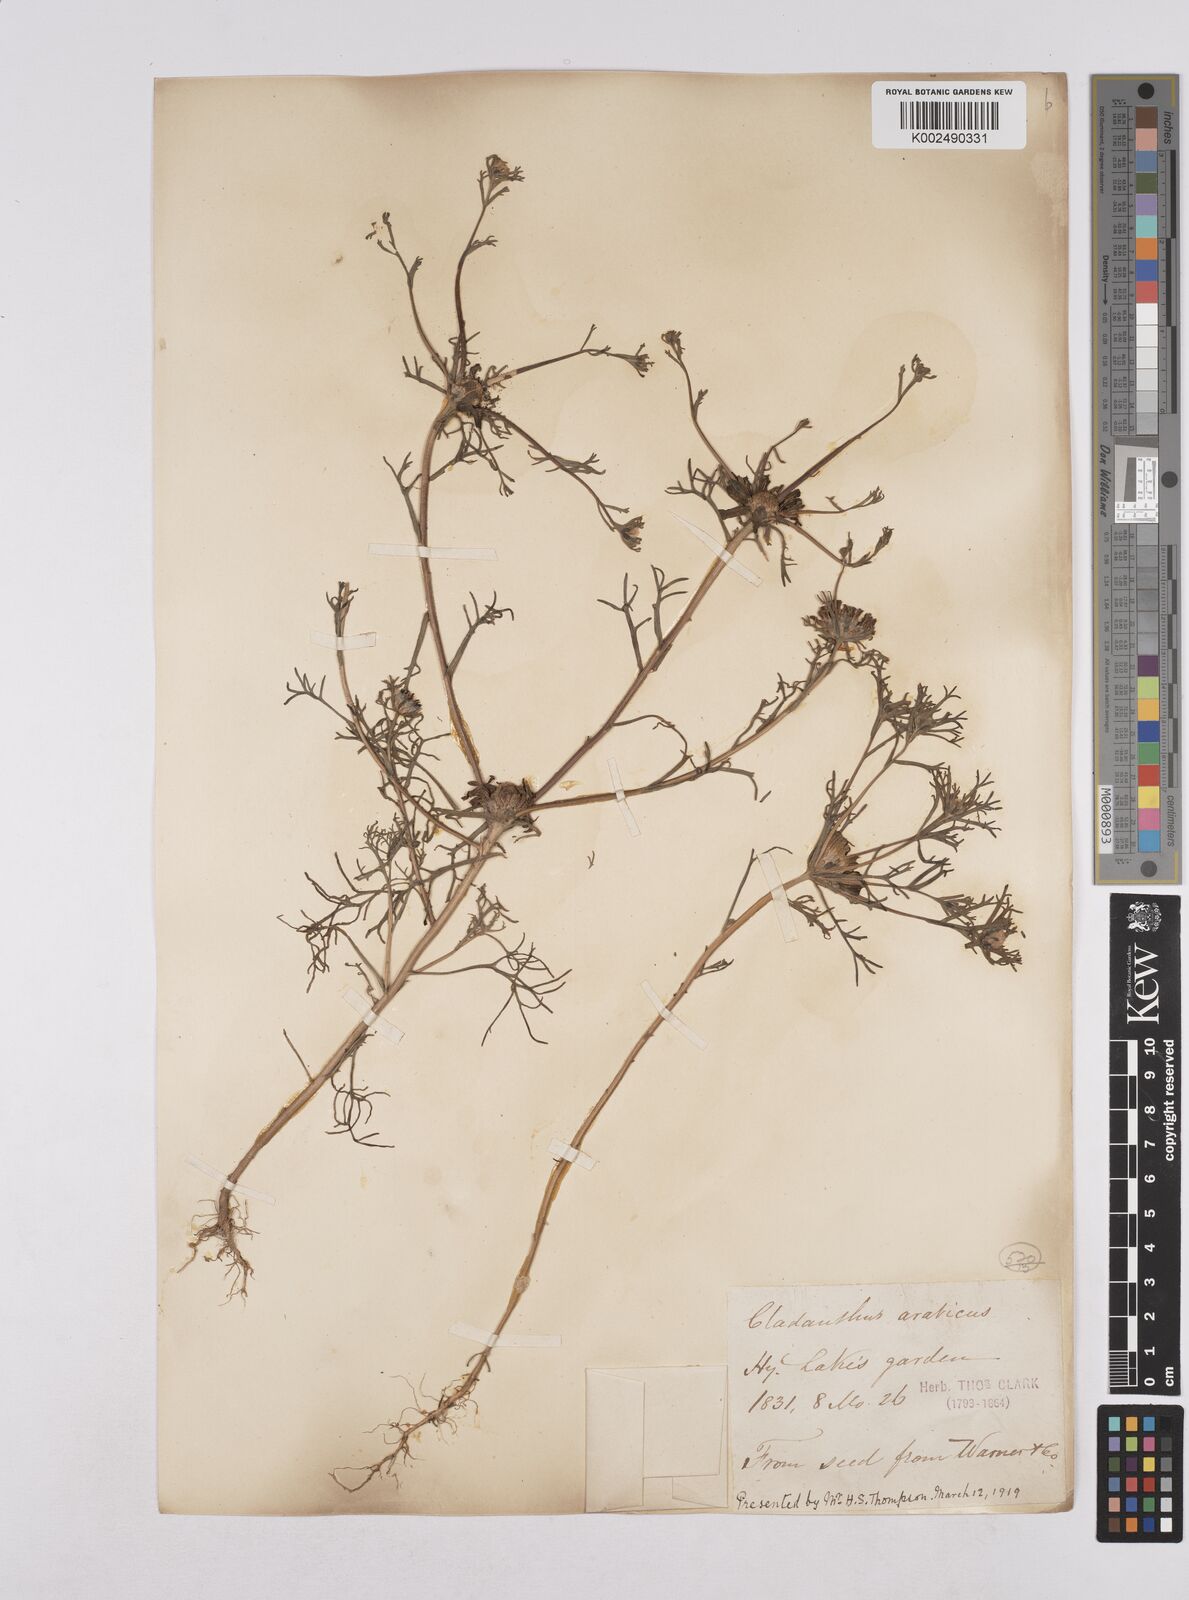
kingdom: Plantae
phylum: Tracheophyta
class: Magnoliopsida
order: Asterales
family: Asteraceae
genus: Cladanthus
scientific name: Cladanthus arabicus
